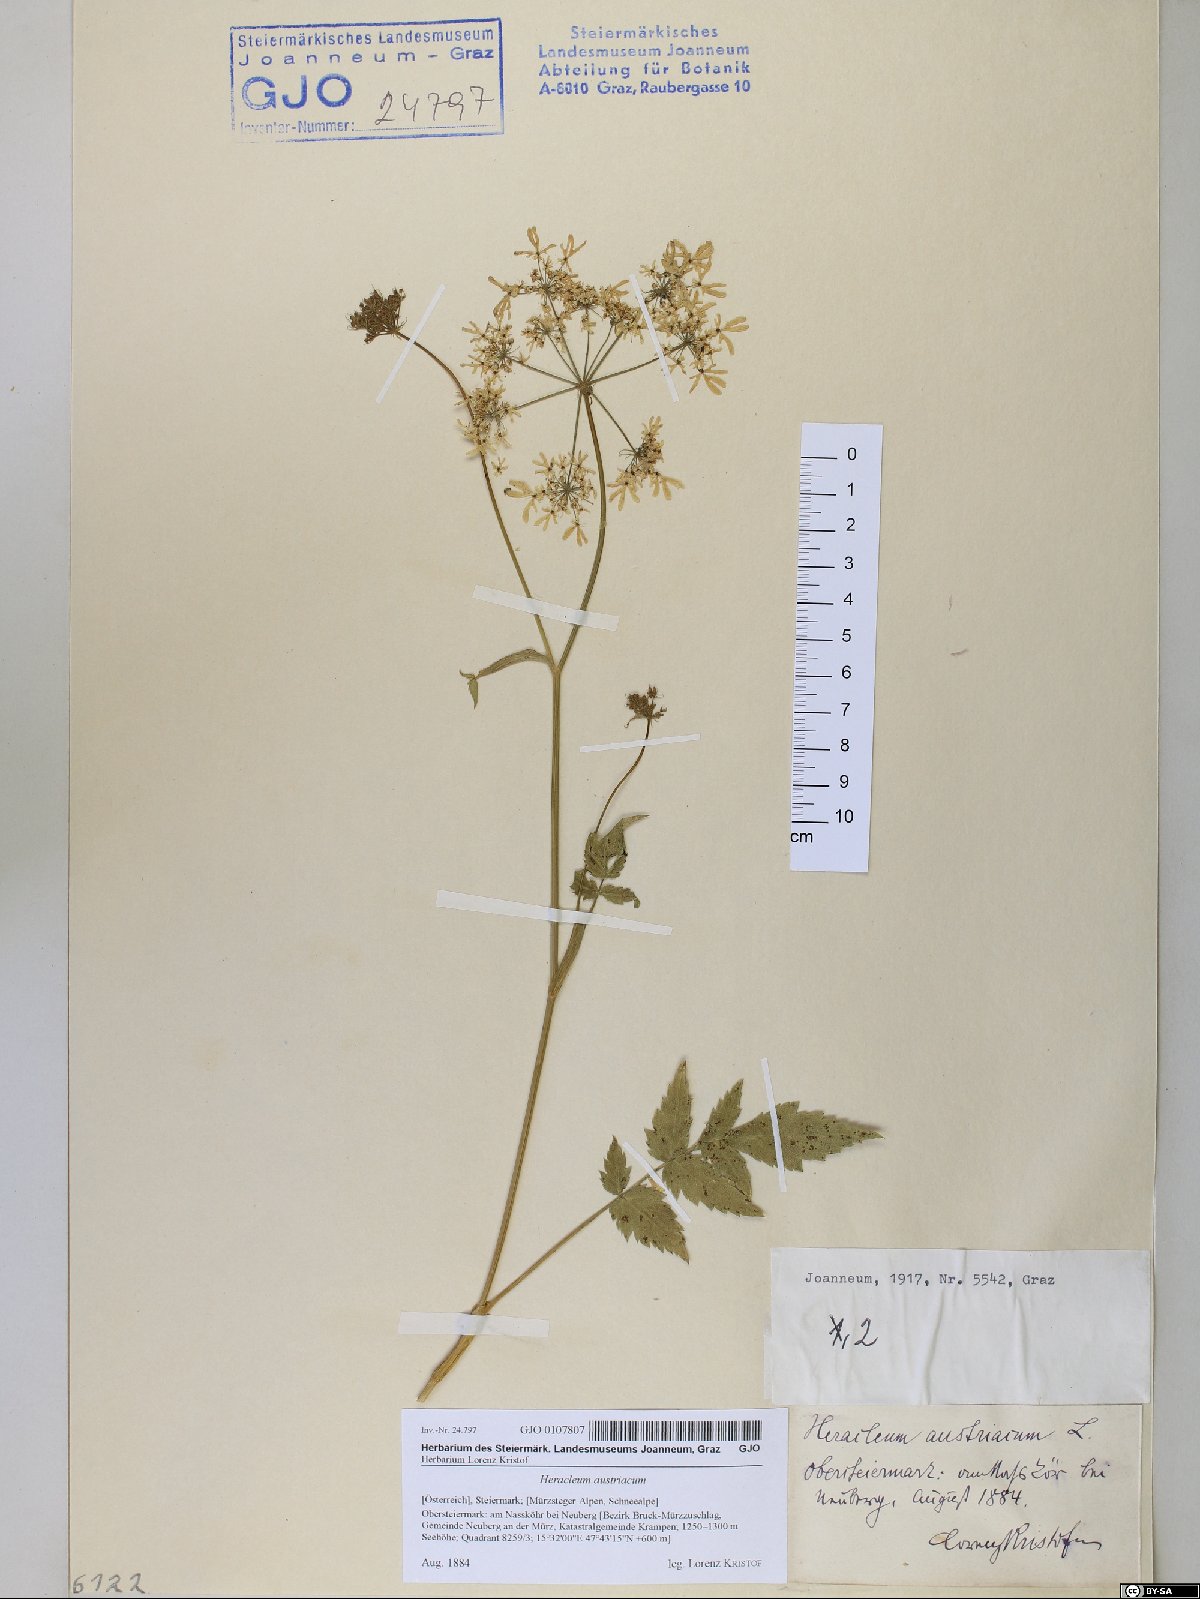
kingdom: Plantae
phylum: Tracheophyta
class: Magnoliopsida
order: Apiales
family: Apiaceae
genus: Heracleum
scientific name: Heracleum austriacum
